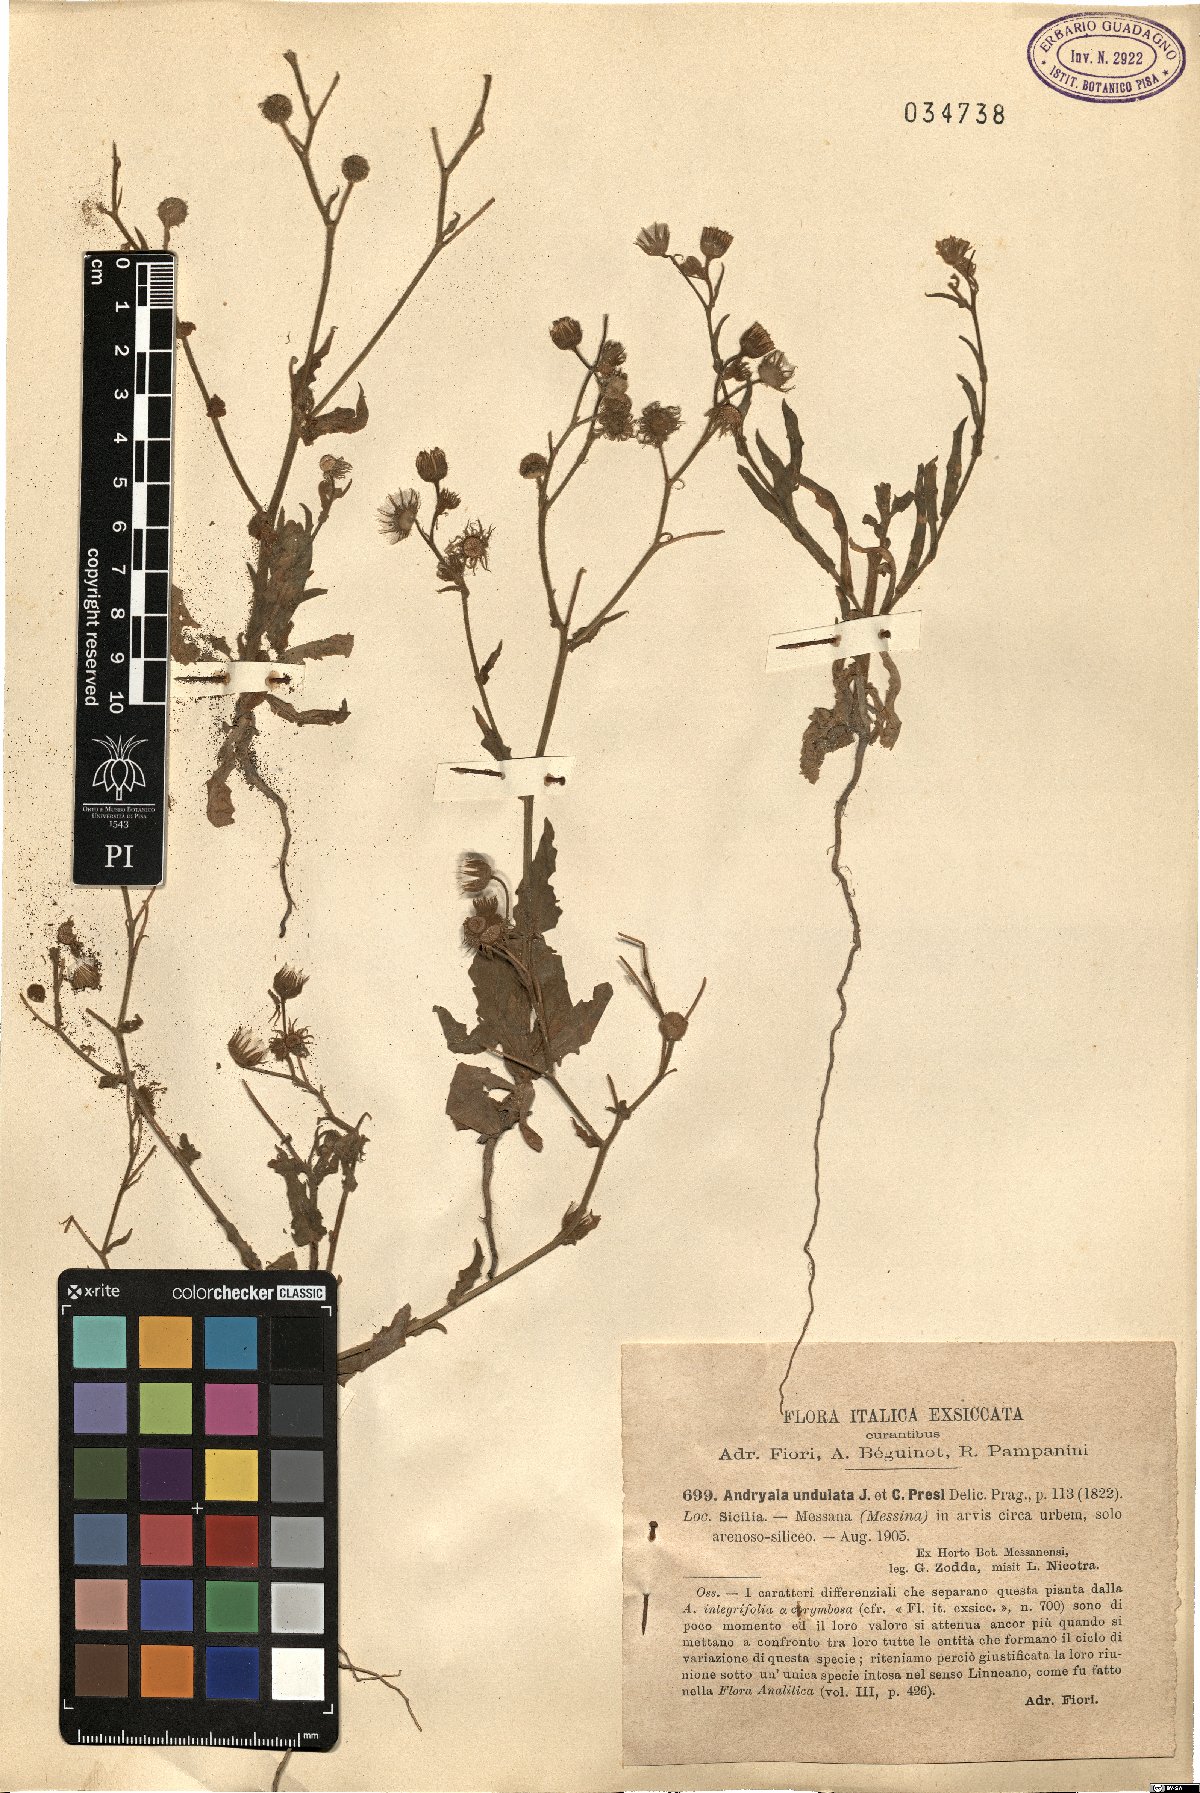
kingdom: Plantae
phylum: Tracheophyta
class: Magnoliopsida
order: Asterales
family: Asteraceae
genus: Andryala
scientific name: Andryala integrifolia
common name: Common andryala
